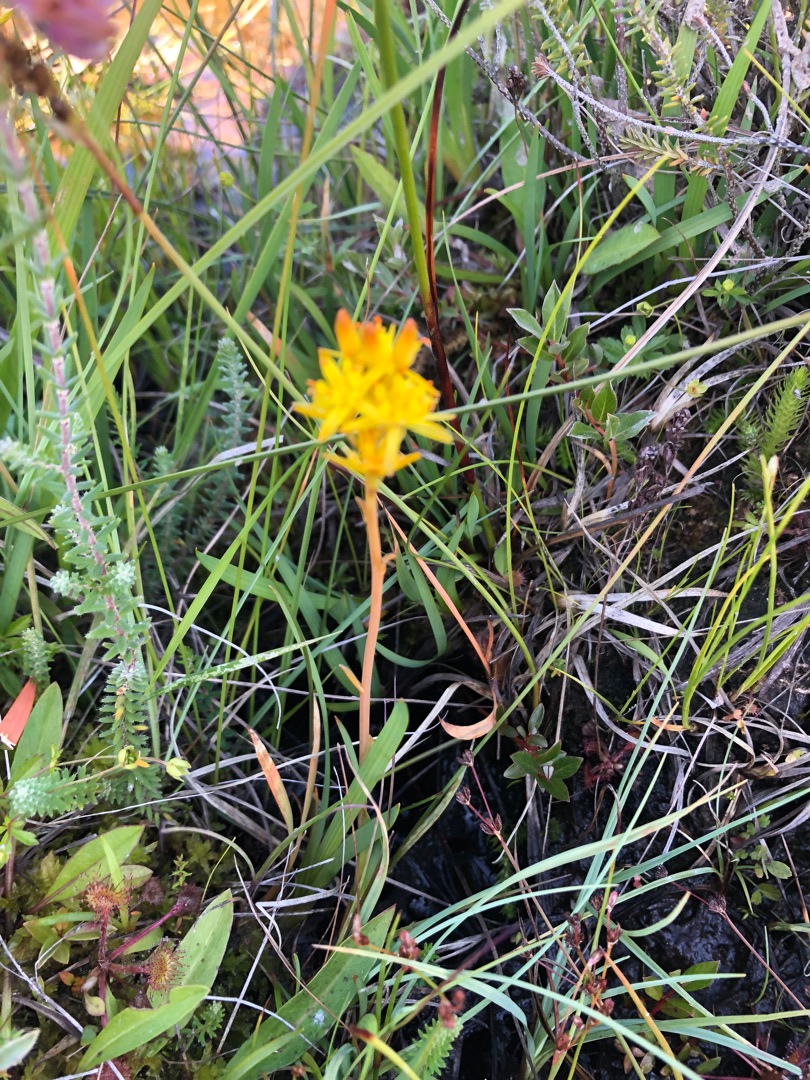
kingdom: Plantae
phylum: Tracheophyta
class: Liliopsida
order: Dioscoreales
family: Nartheciaceae
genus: Narthecium
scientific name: Narthecium ossifragum
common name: Benbræk
